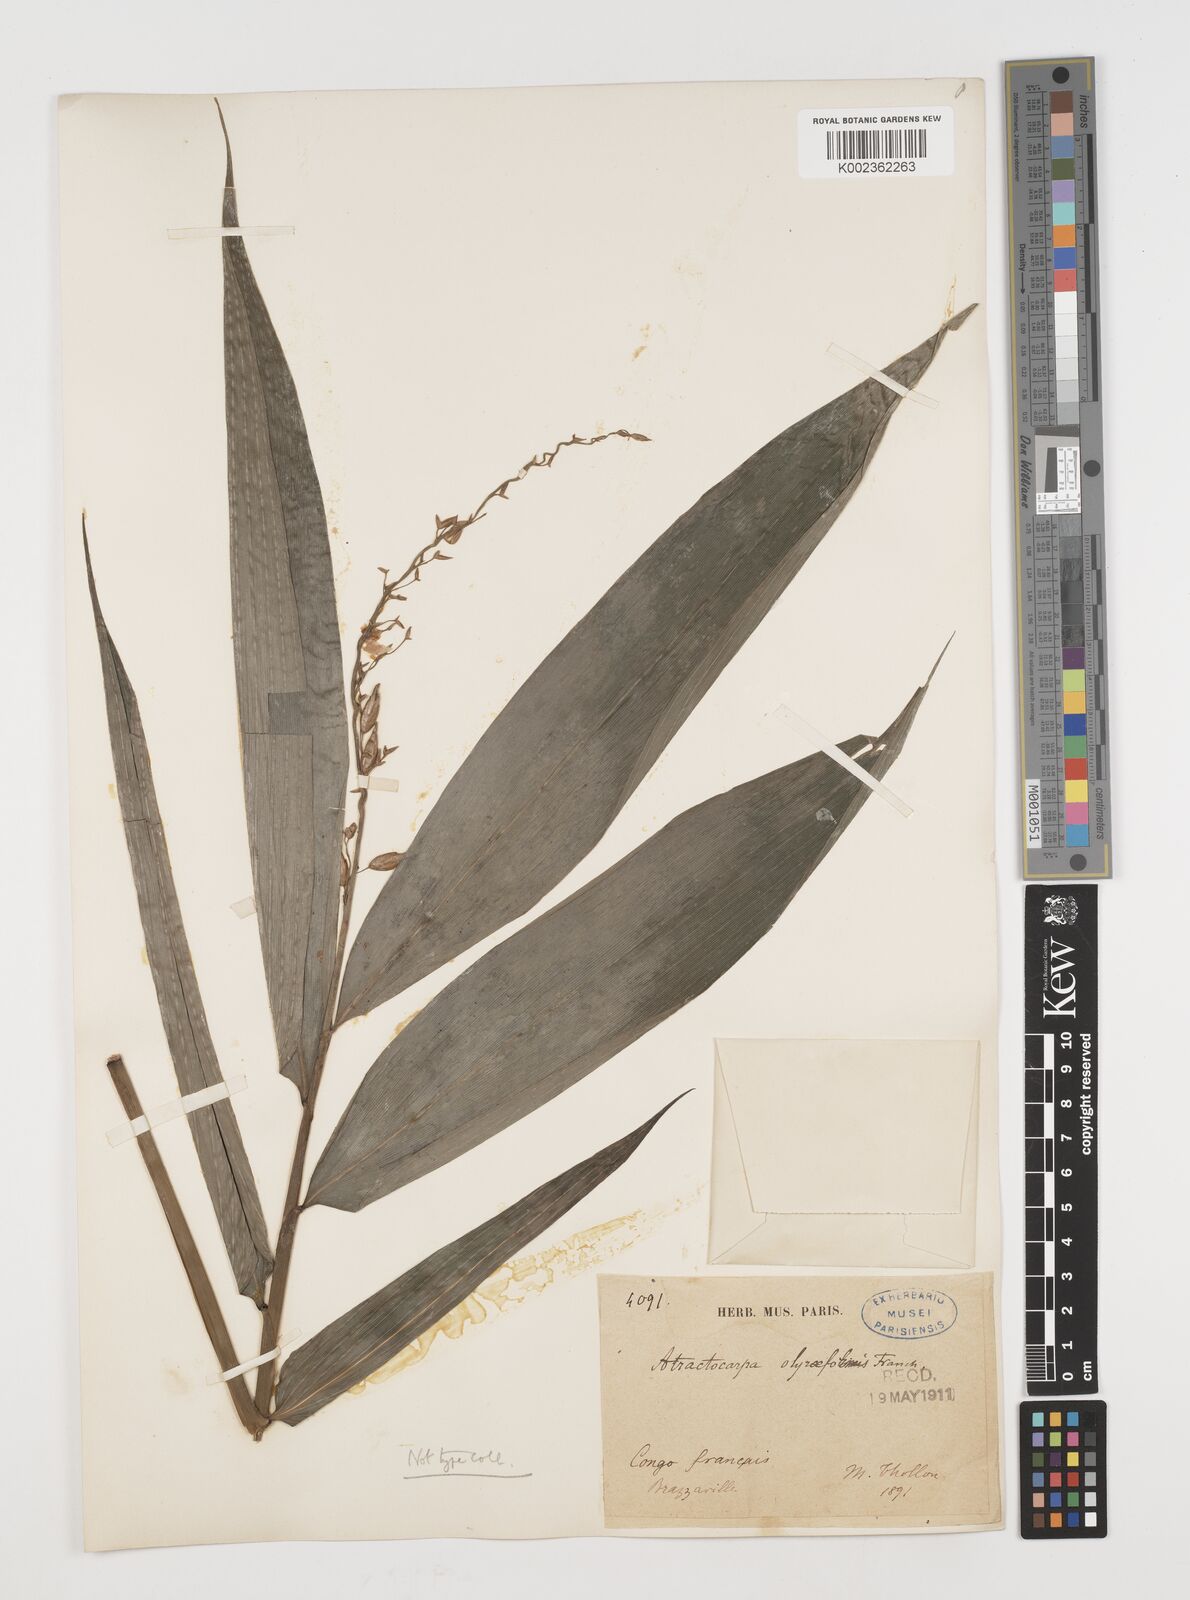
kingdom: Plantae
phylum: Tracheophyta
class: Liliopsida
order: Poales
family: Poaceae
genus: Puelia
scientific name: Puelia olyriformis
